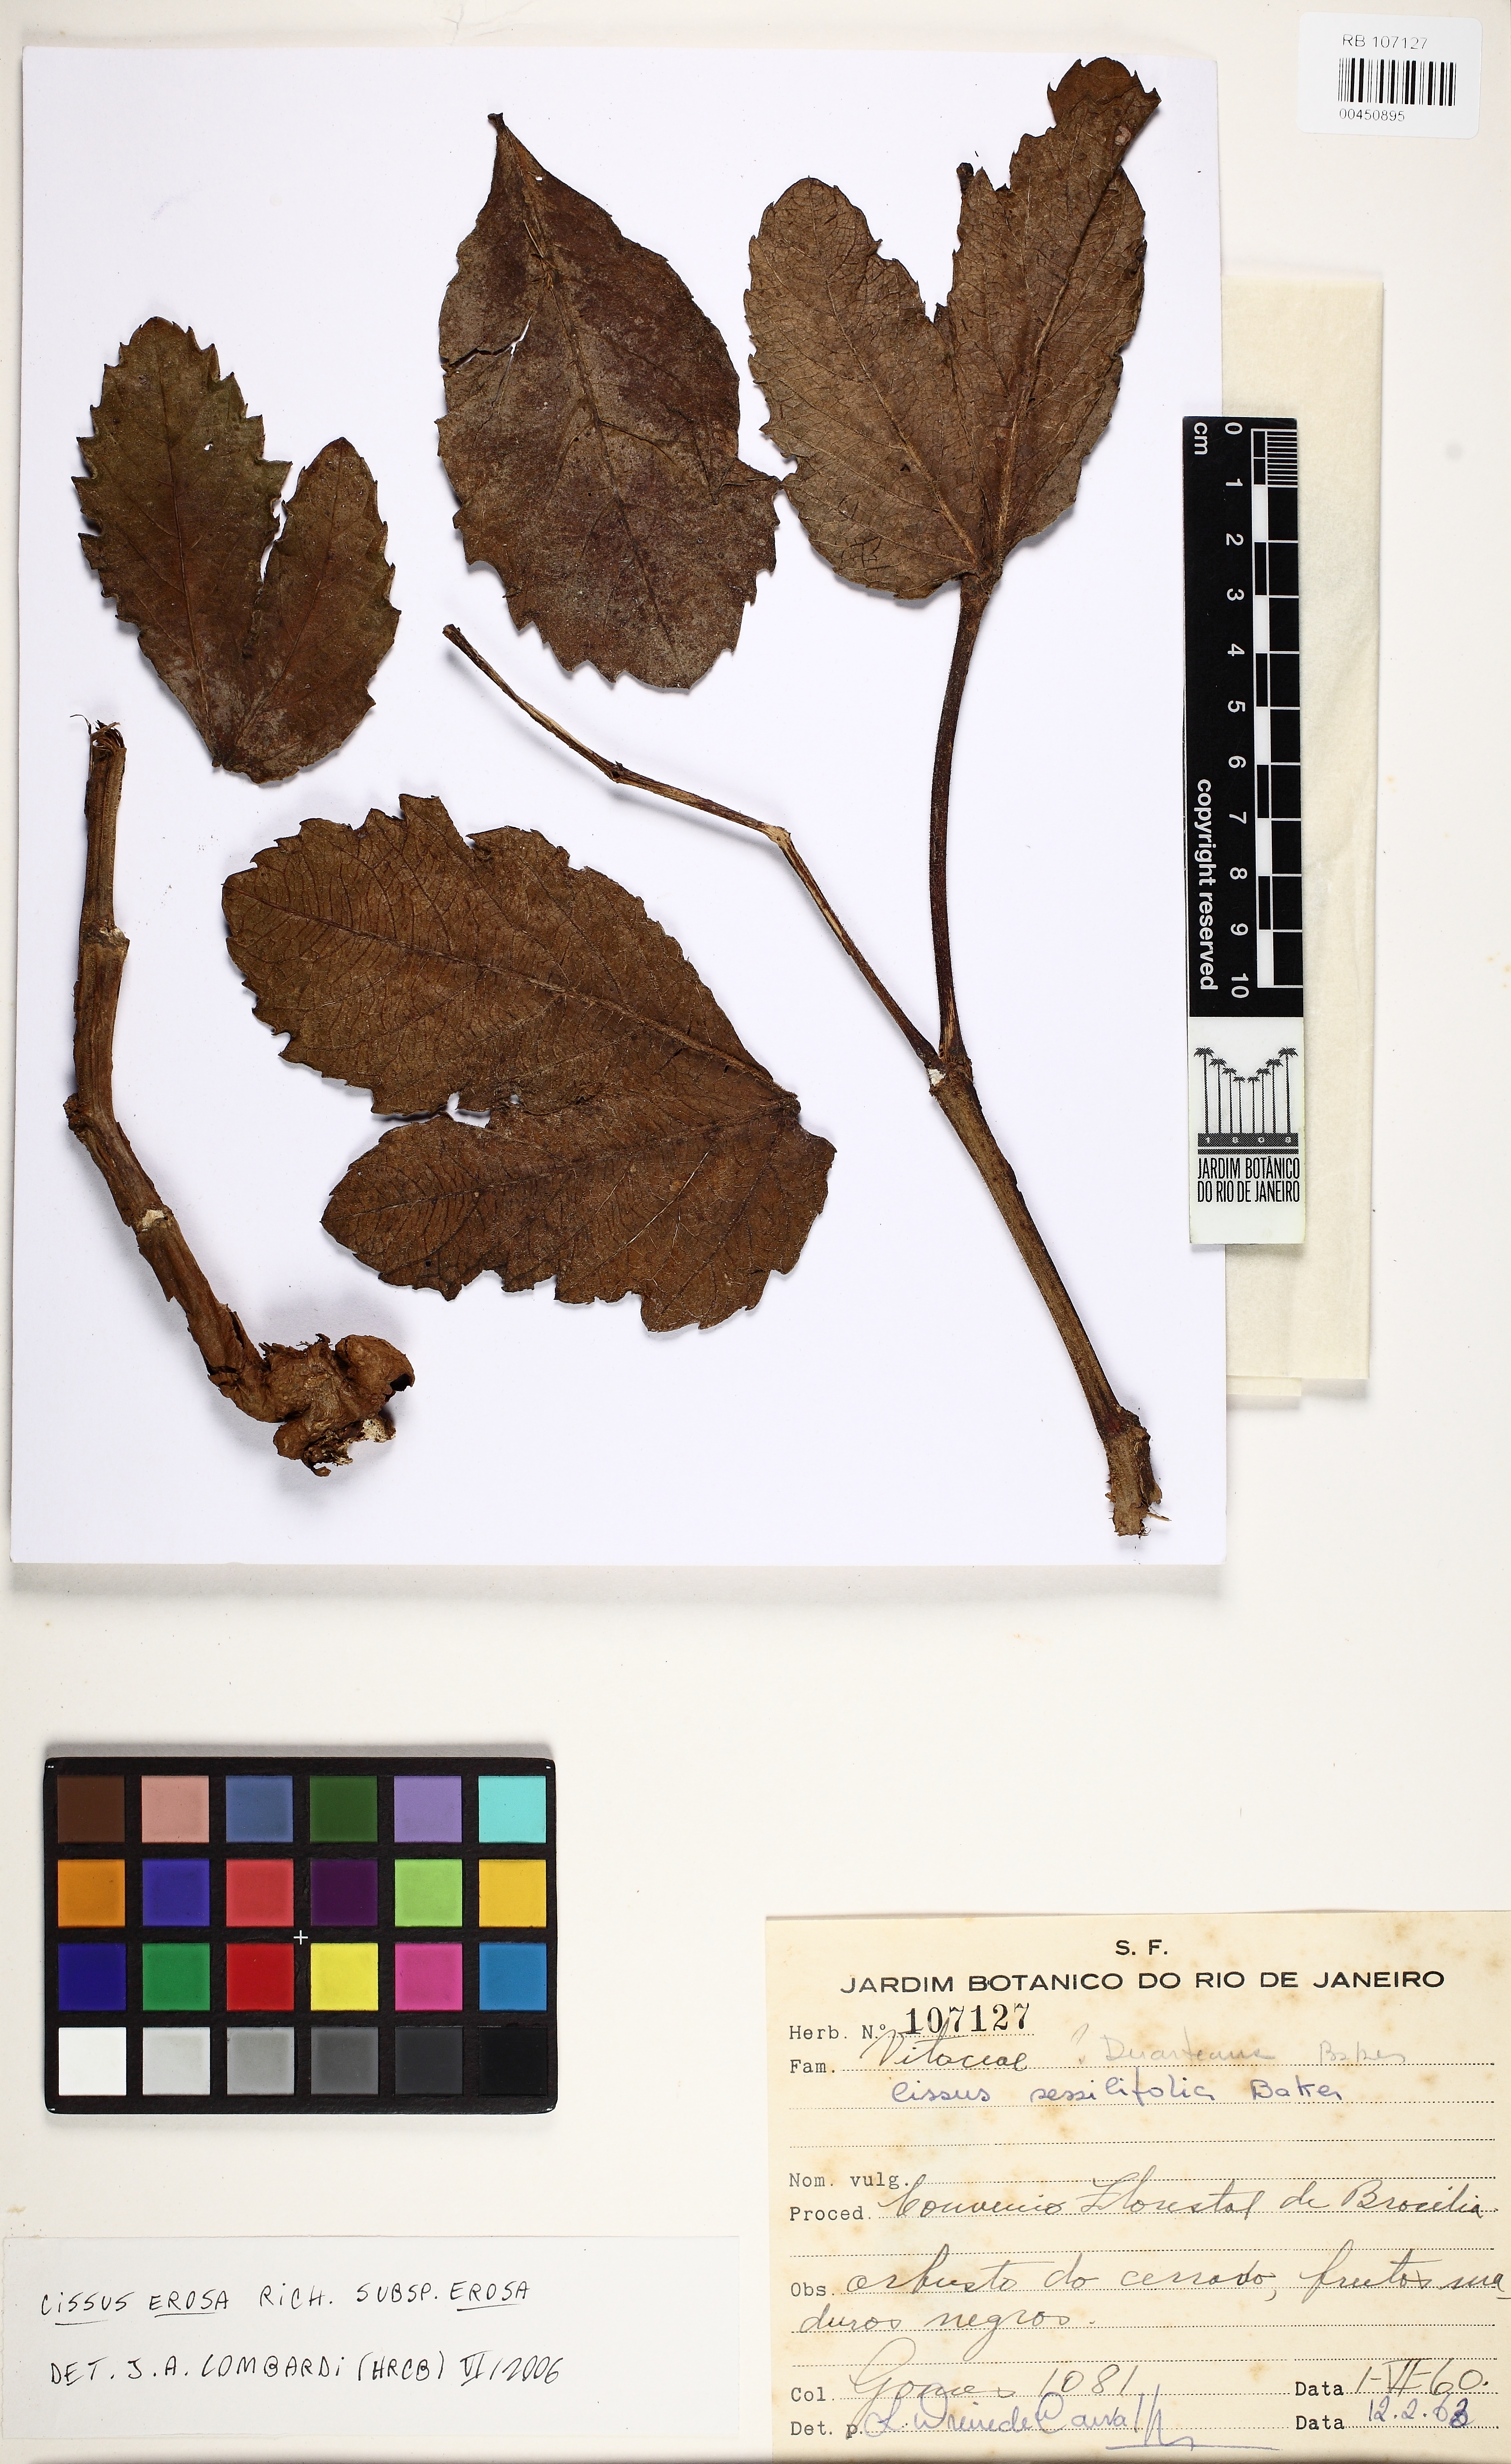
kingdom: Plantae
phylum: Tracheophyta
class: Magnoliopsida
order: Vitales
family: Vitaceae
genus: Cissus
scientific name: Cissus erosa
